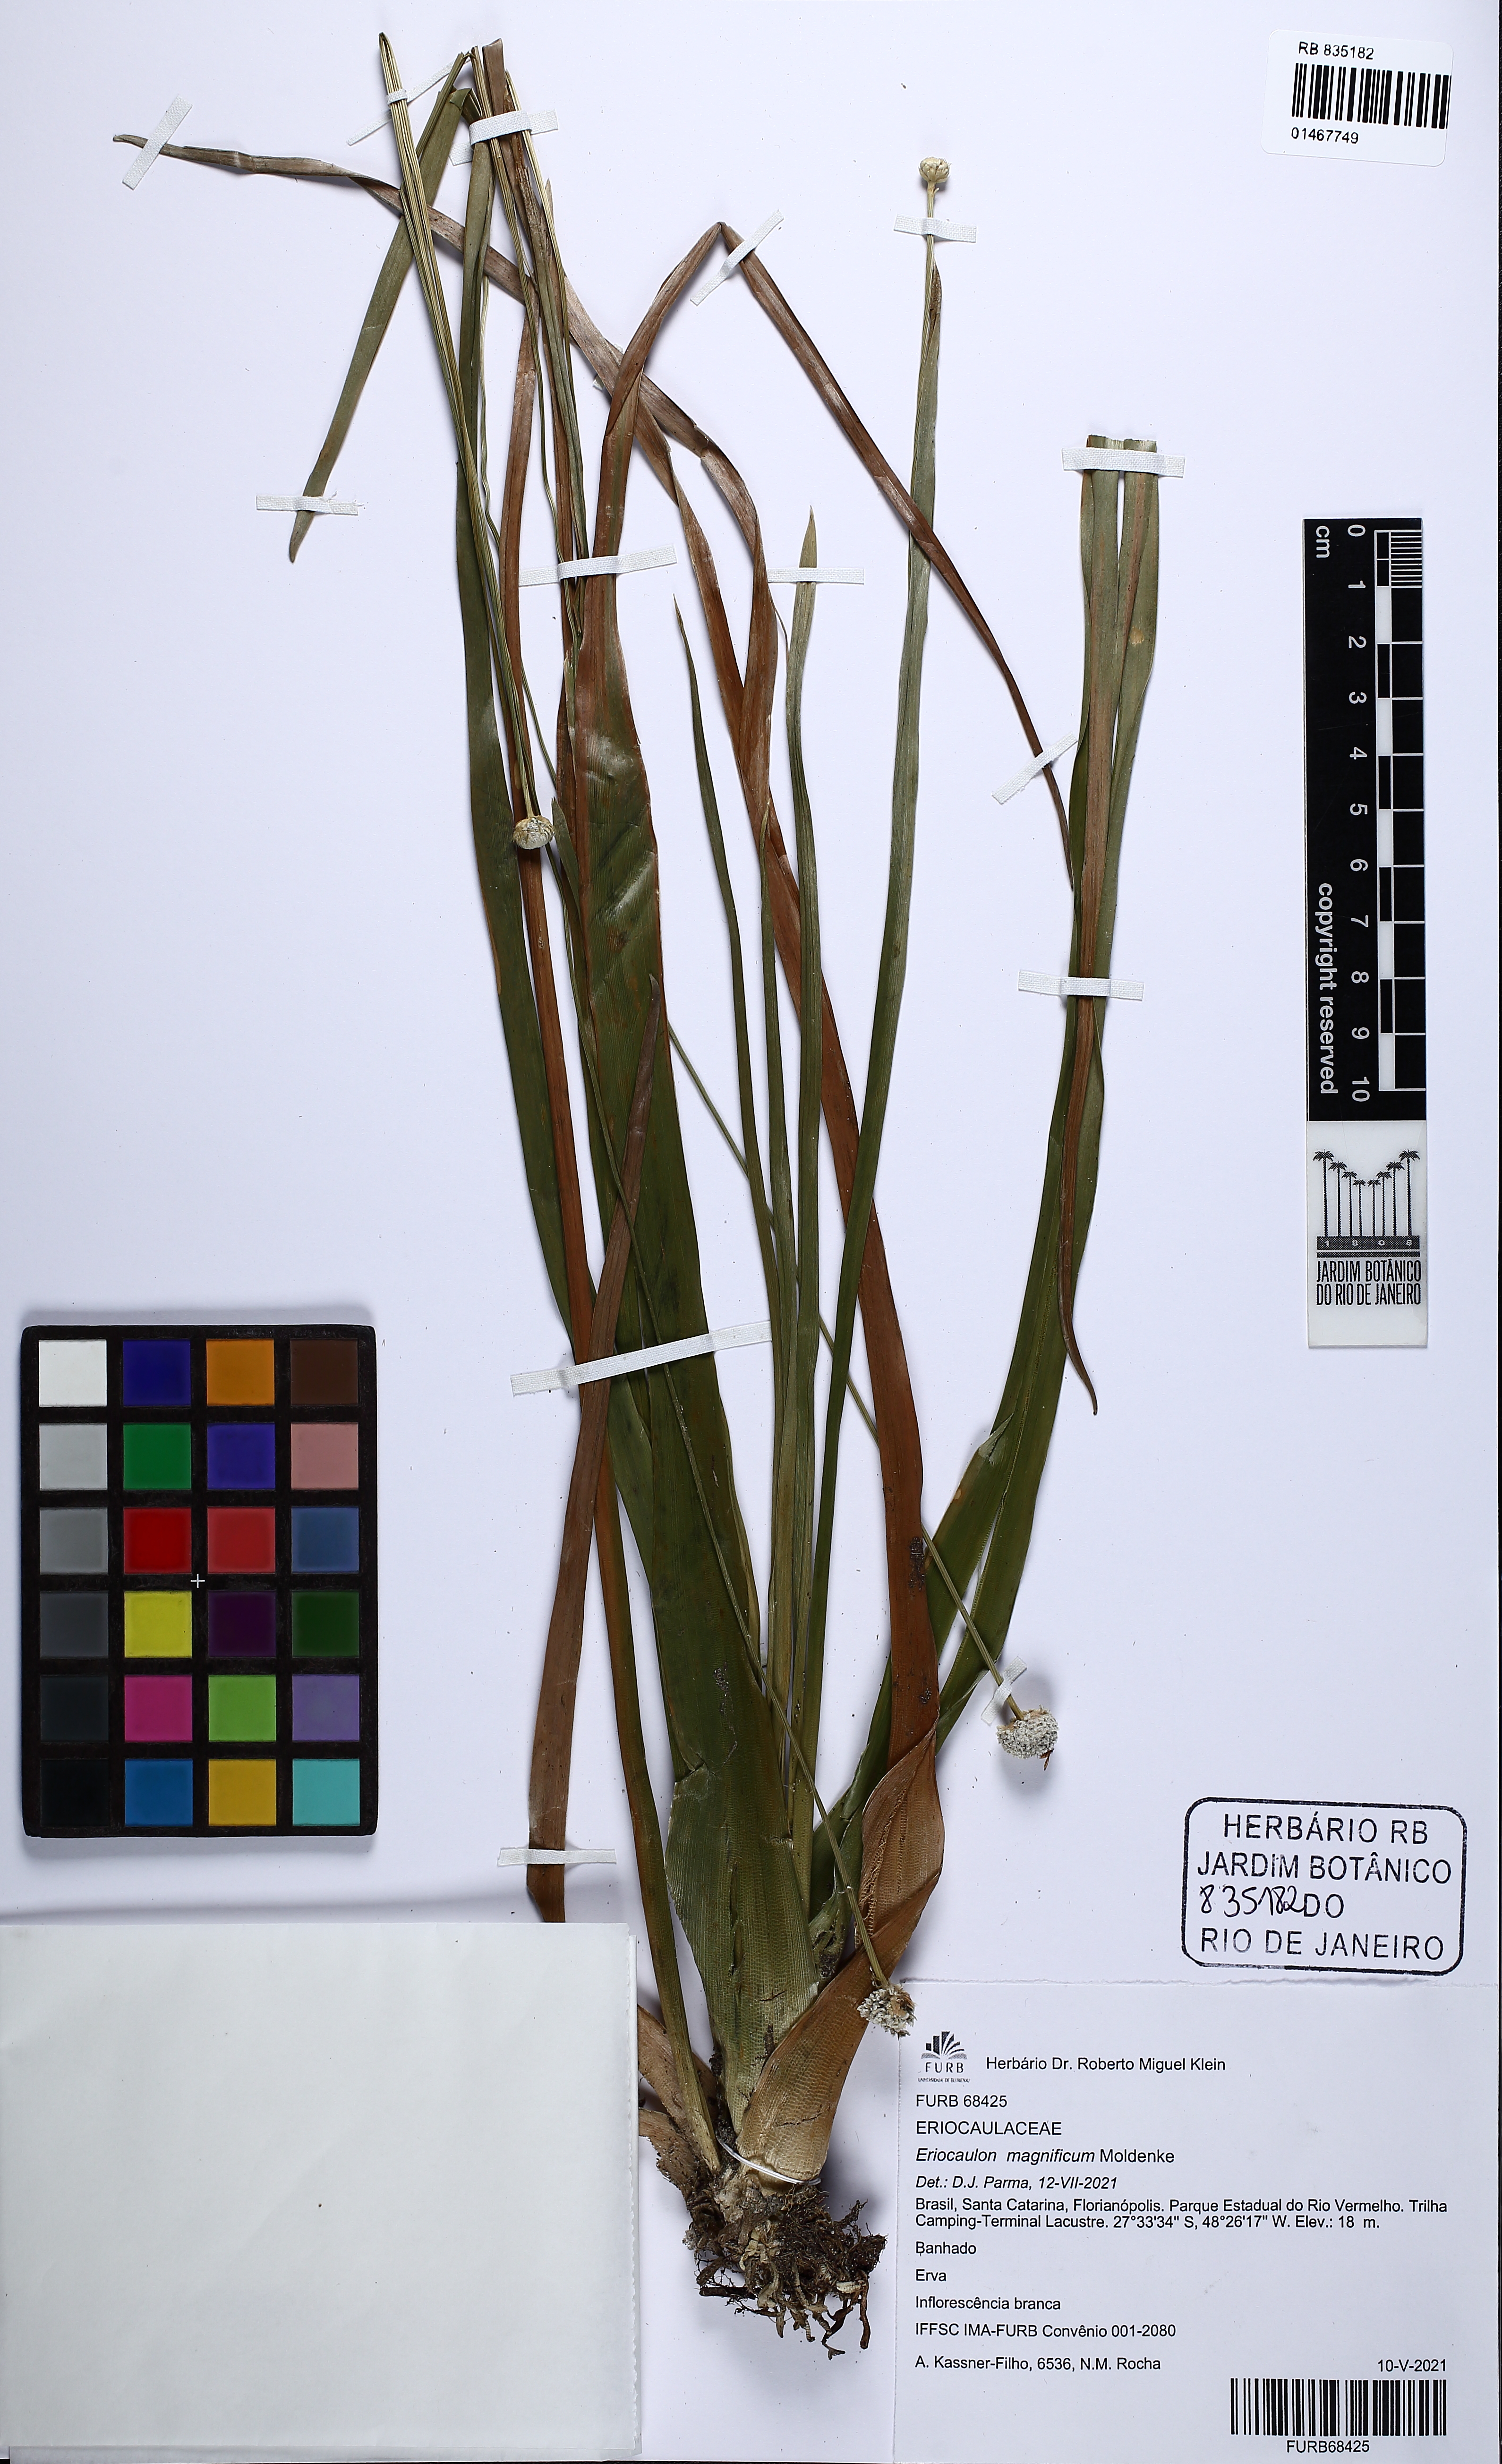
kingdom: Plantae
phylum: Tracheophyta
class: Liliopsida
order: Poales
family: Eriocaulaceae
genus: Eriocaulon
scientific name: Eriocaulon magnificum
